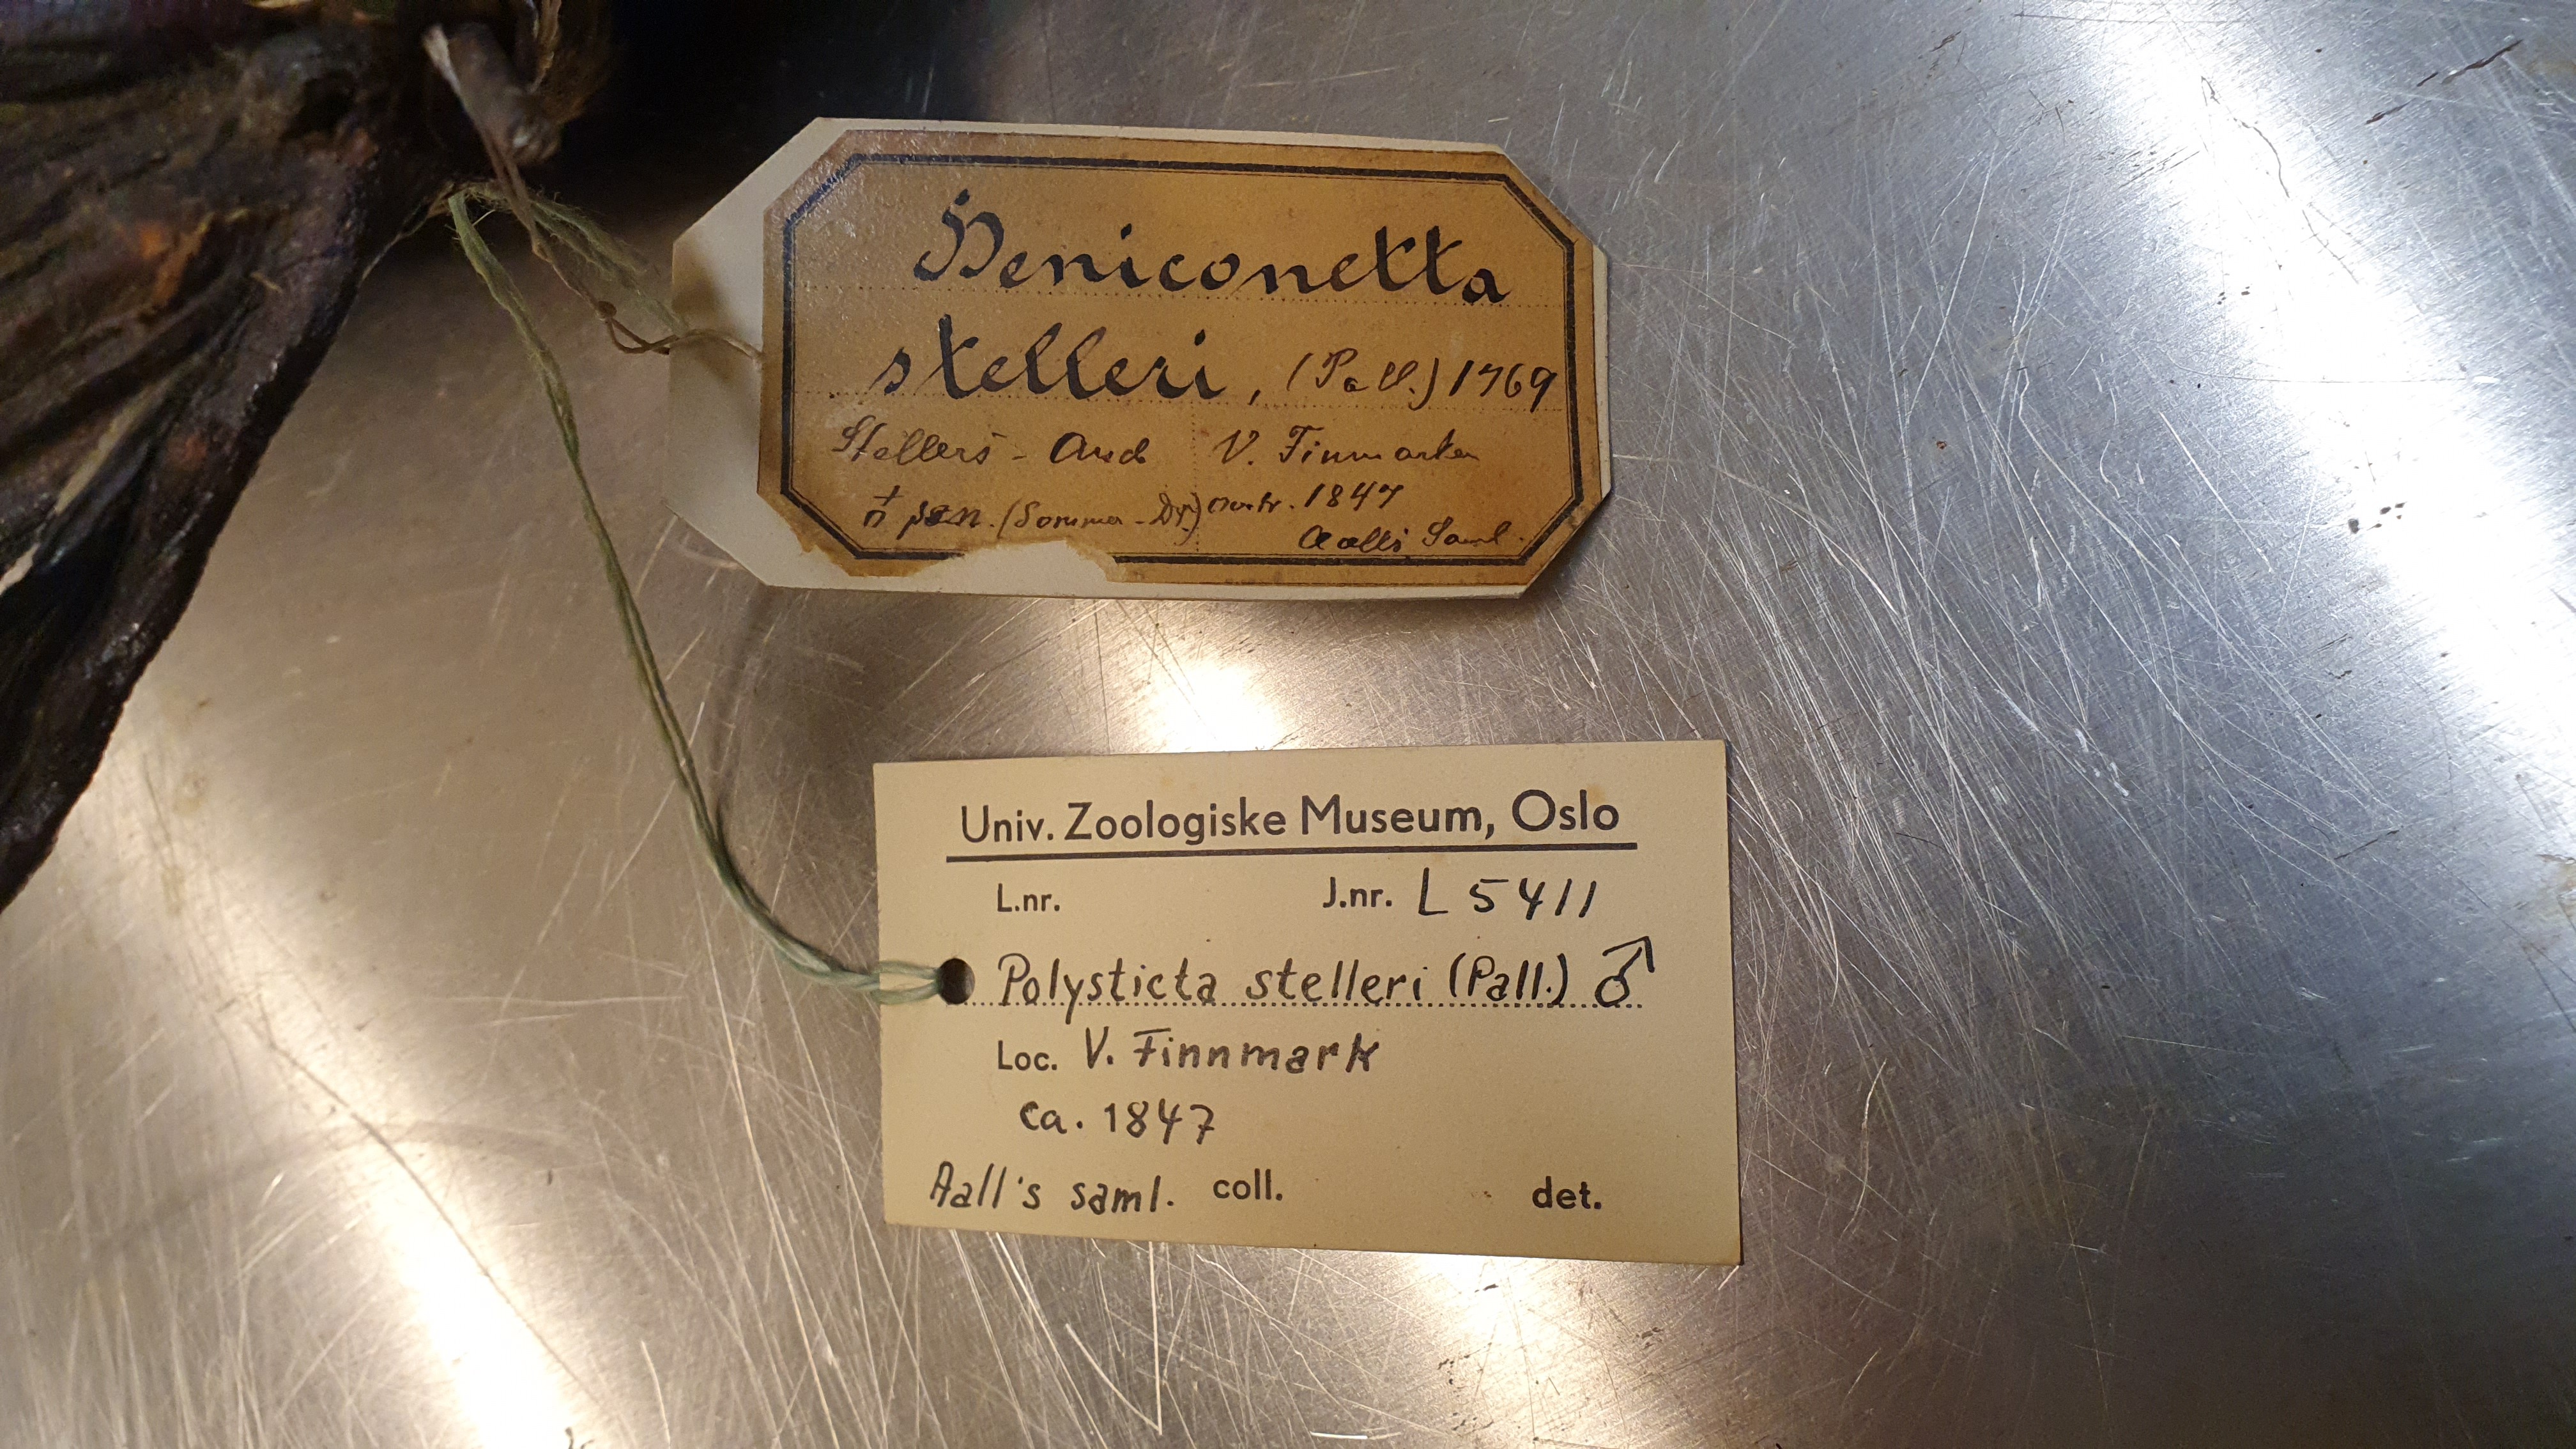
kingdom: Animalia
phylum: Chordata
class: Aves
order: Anseriformes
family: Anatidae
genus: Polysticta
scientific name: Polysticta stelleri
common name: Steller's eider
